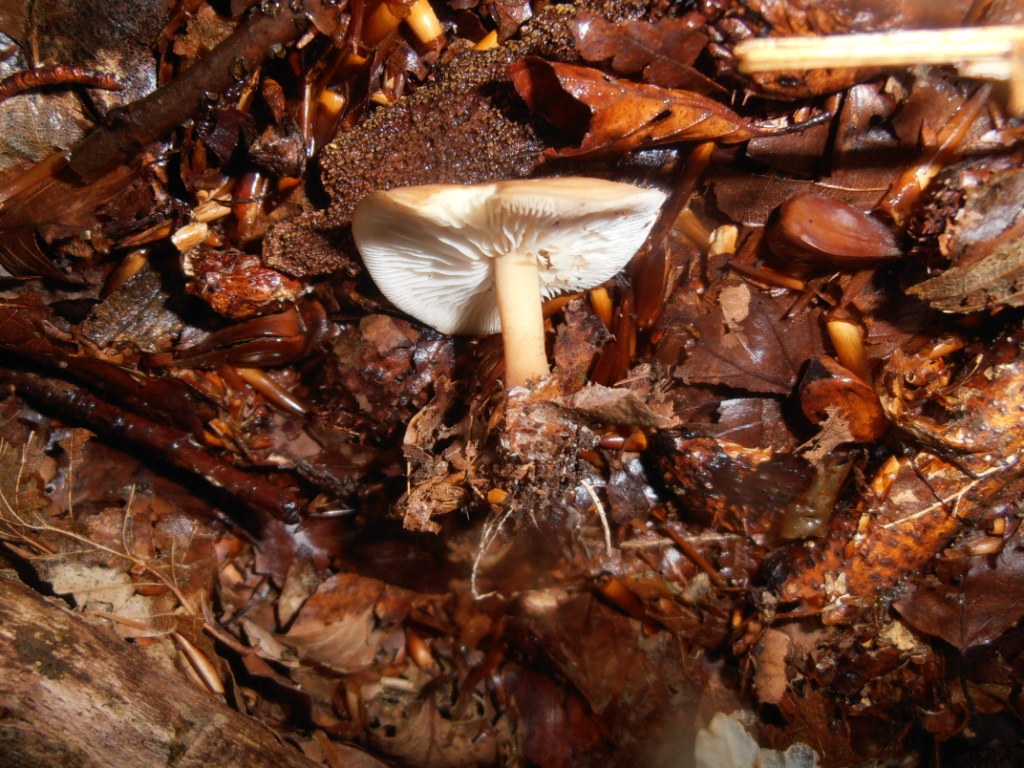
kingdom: Fungi
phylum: Basidiomycota
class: Agaricomycetes
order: Agaricales
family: Omphalotaceae
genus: Gymnopus
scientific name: Gymnopus dryophilus
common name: løv-fladhat
